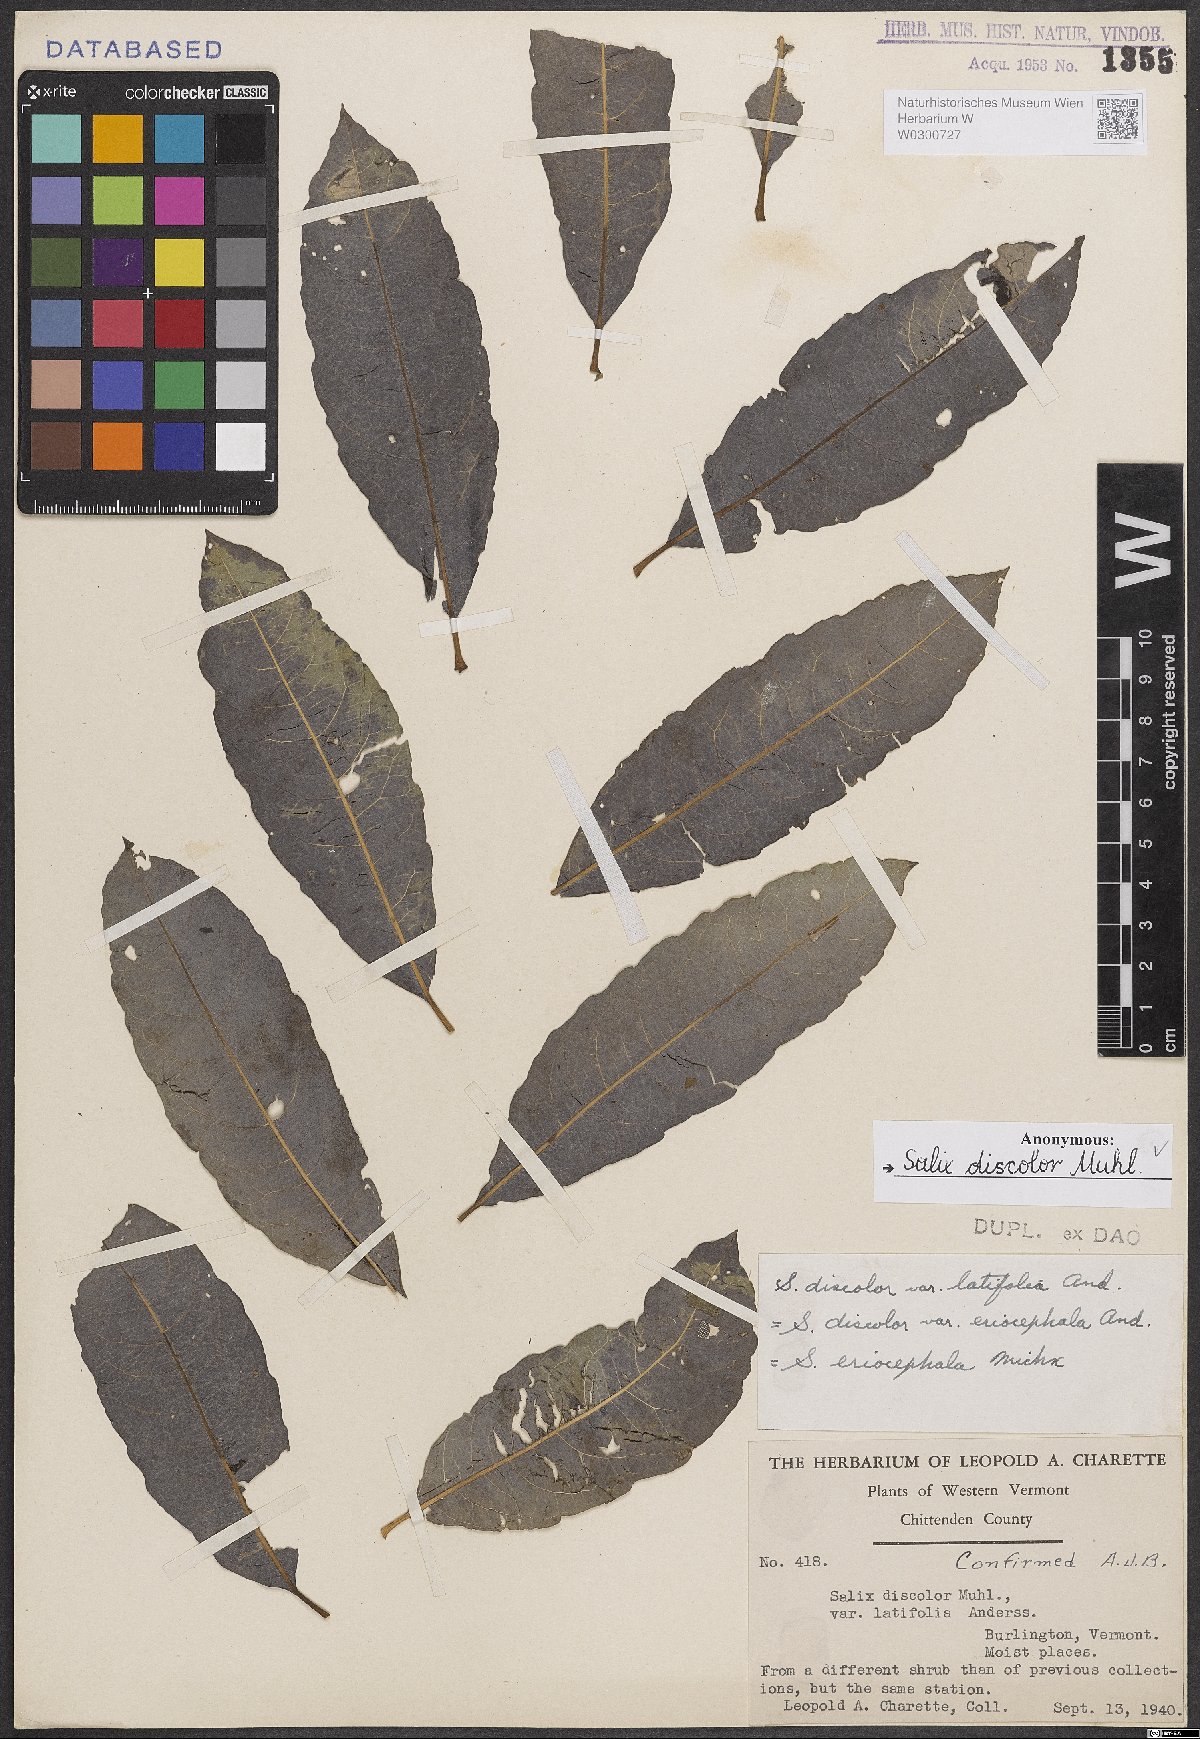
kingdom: Plantae
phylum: Tracheophyta
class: Magnoliopsida
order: Malpighiales
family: Salicaceae
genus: Salix
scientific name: Salix discolor
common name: Glaucous willow
